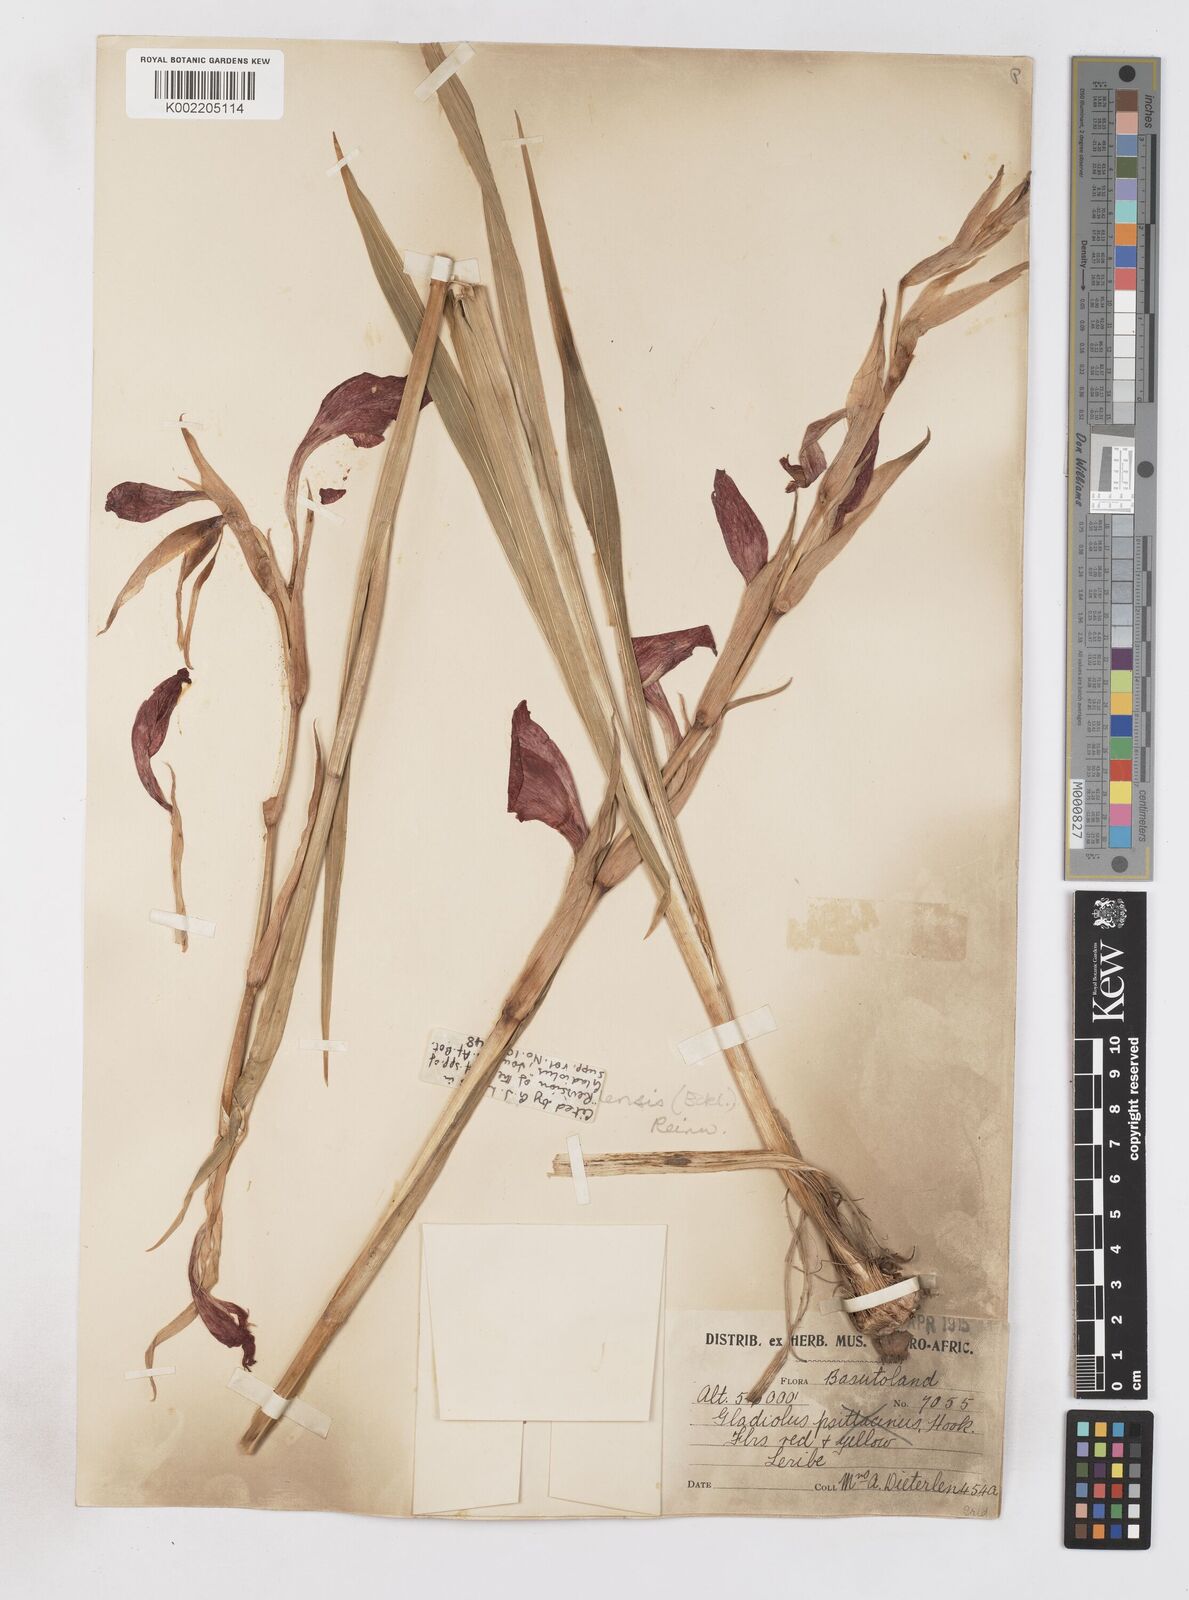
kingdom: Plantae
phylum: Tracheophyta
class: Liliopsida
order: Asparagales
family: Iridaceae
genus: Gladiolus
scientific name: Gladiolus dalenii
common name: Cornflag
